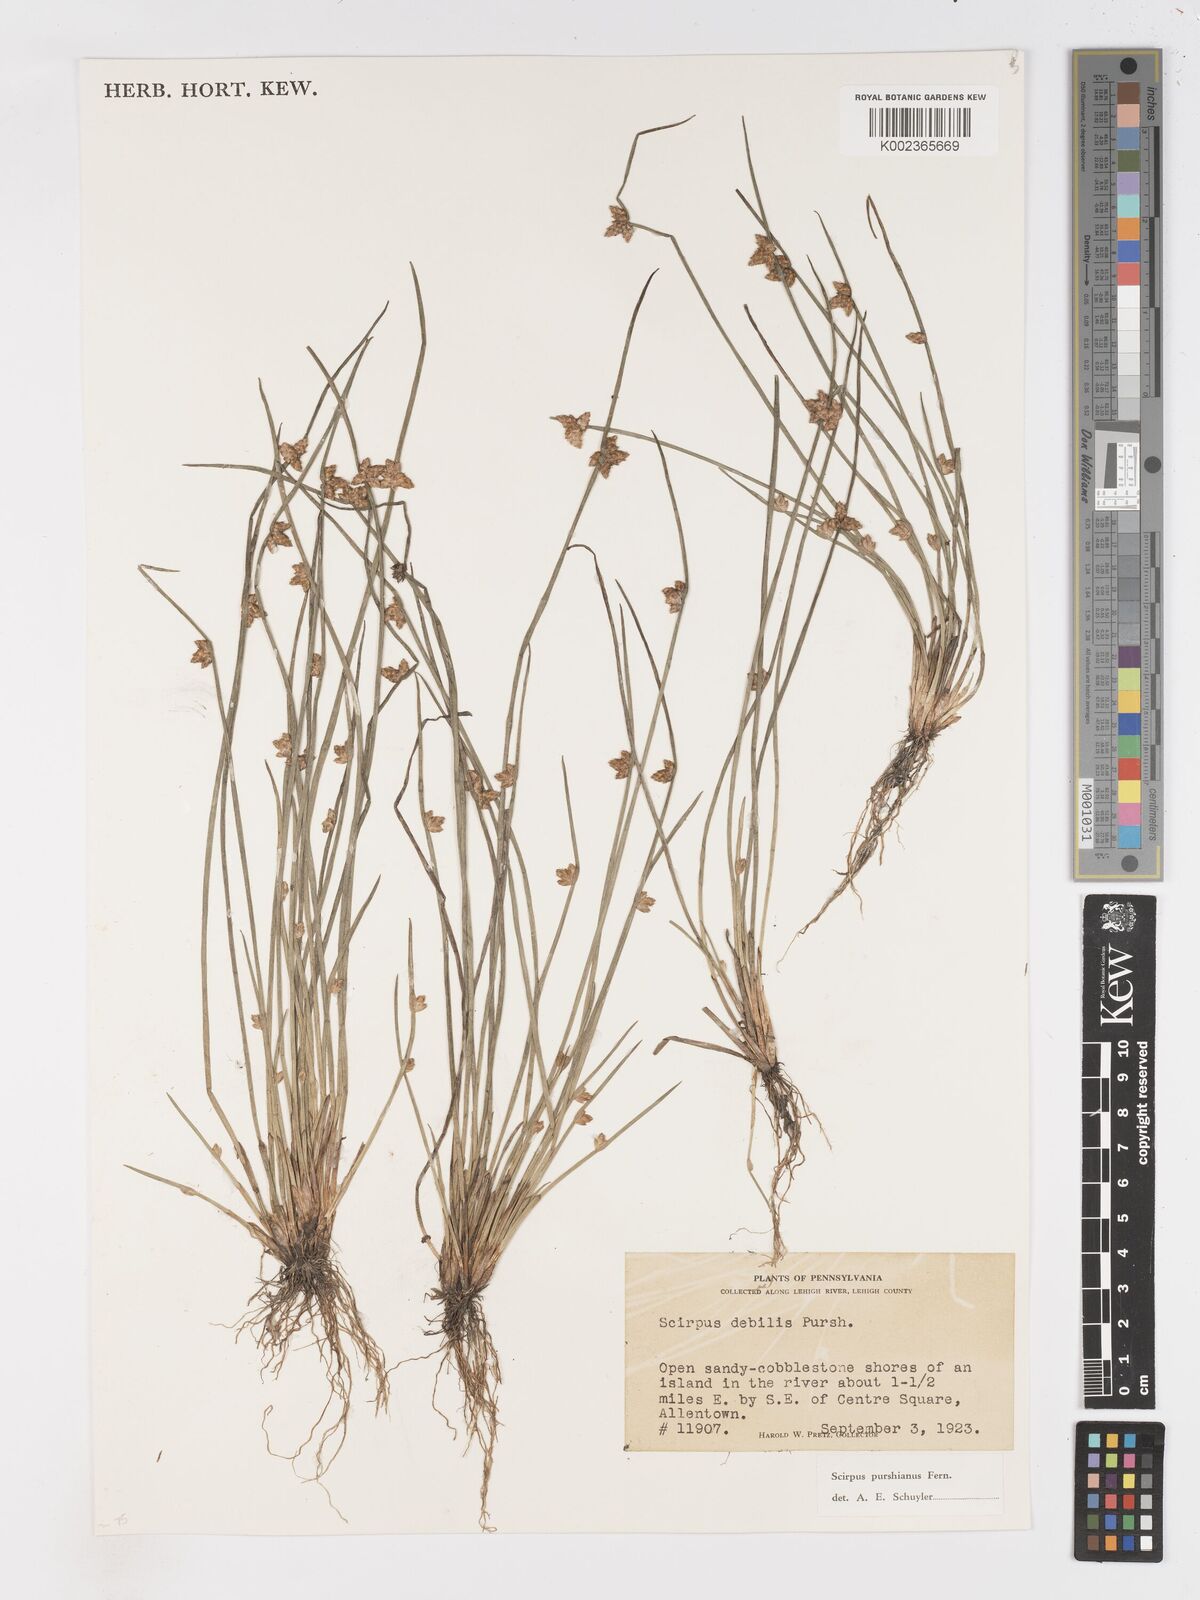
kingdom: Plantae
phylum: Tracheophyta
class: Liliopsida
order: Poales
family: Cyperaceae
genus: Schoenoplectiella
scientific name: Schoenoplectiella purshiana
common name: Weak-stalked bulrush
